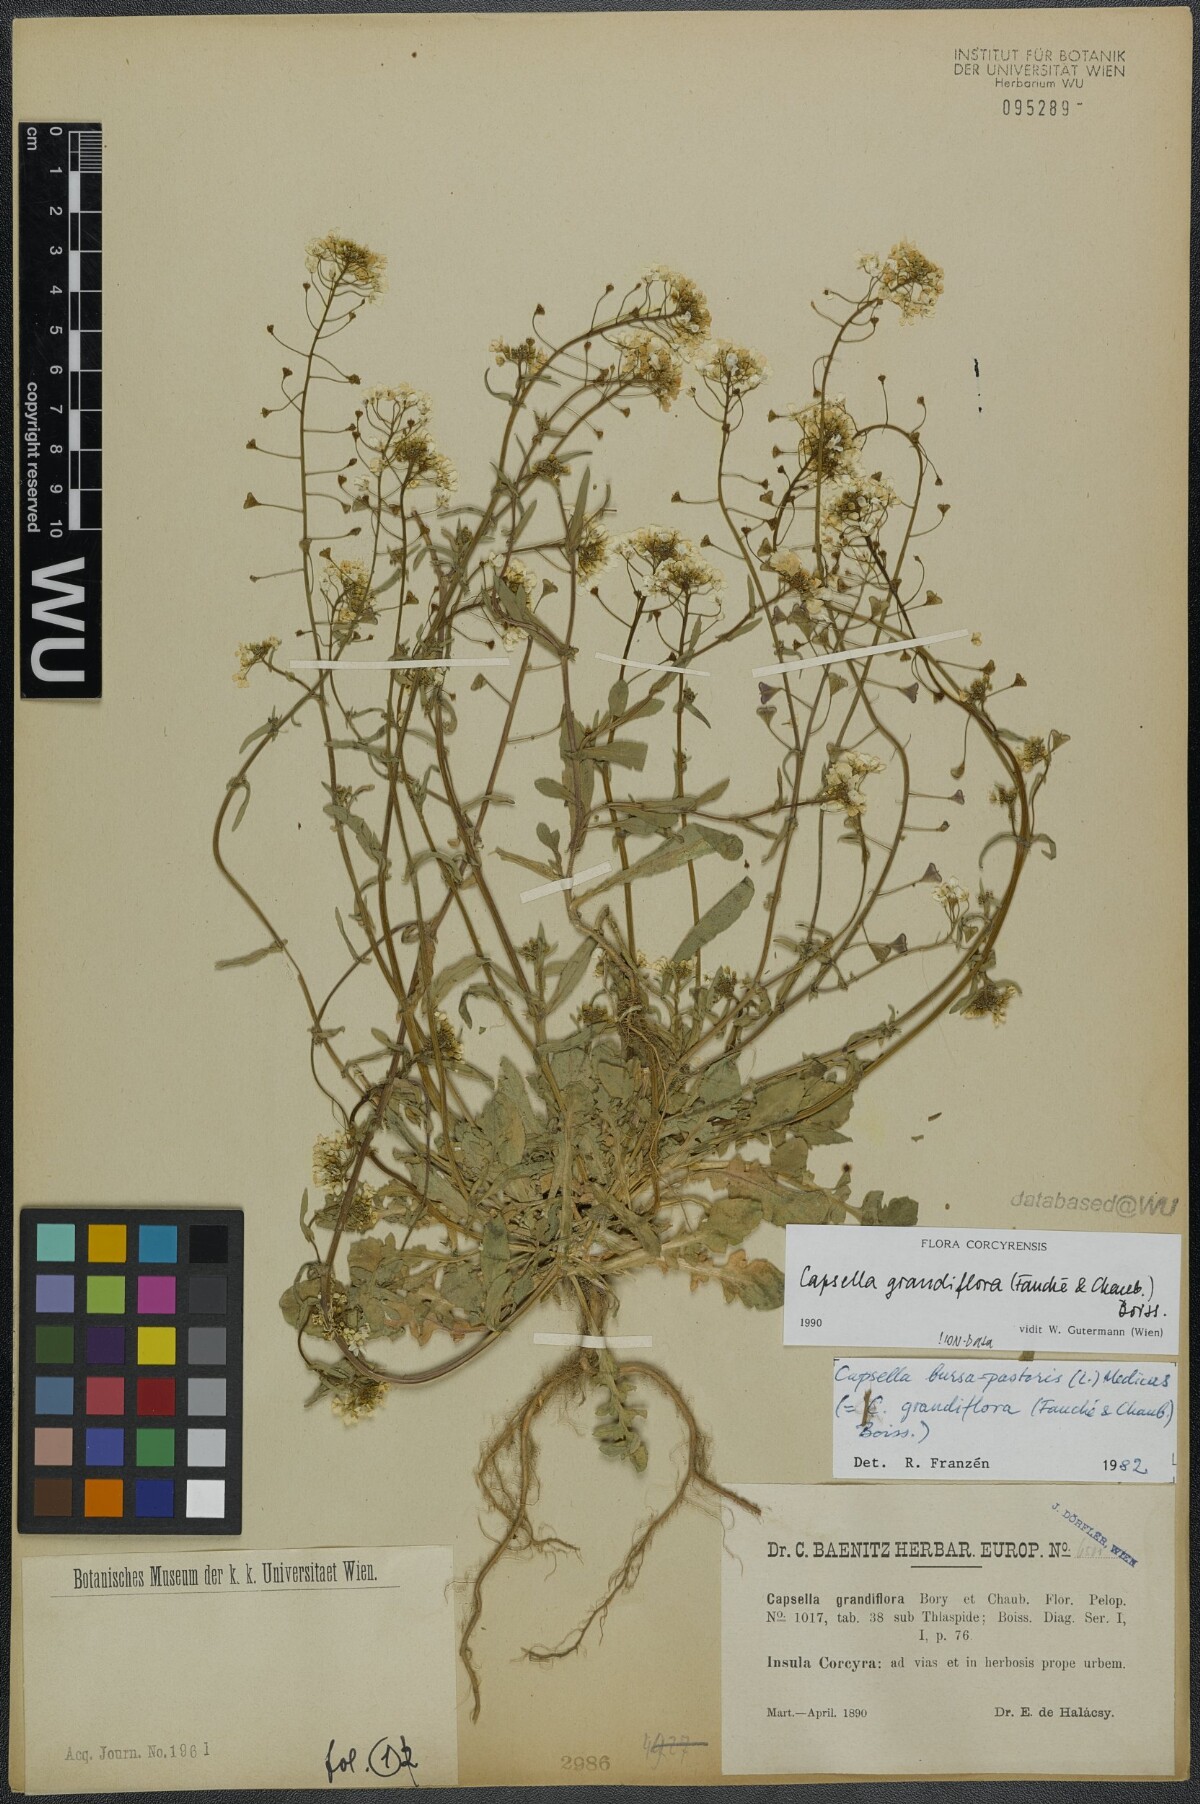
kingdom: Plantae
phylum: Tracheophyta
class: Magnoliopsida
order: Brassicales
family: Brassicaceae
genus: Capsella
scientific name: Capsella grandiflora
